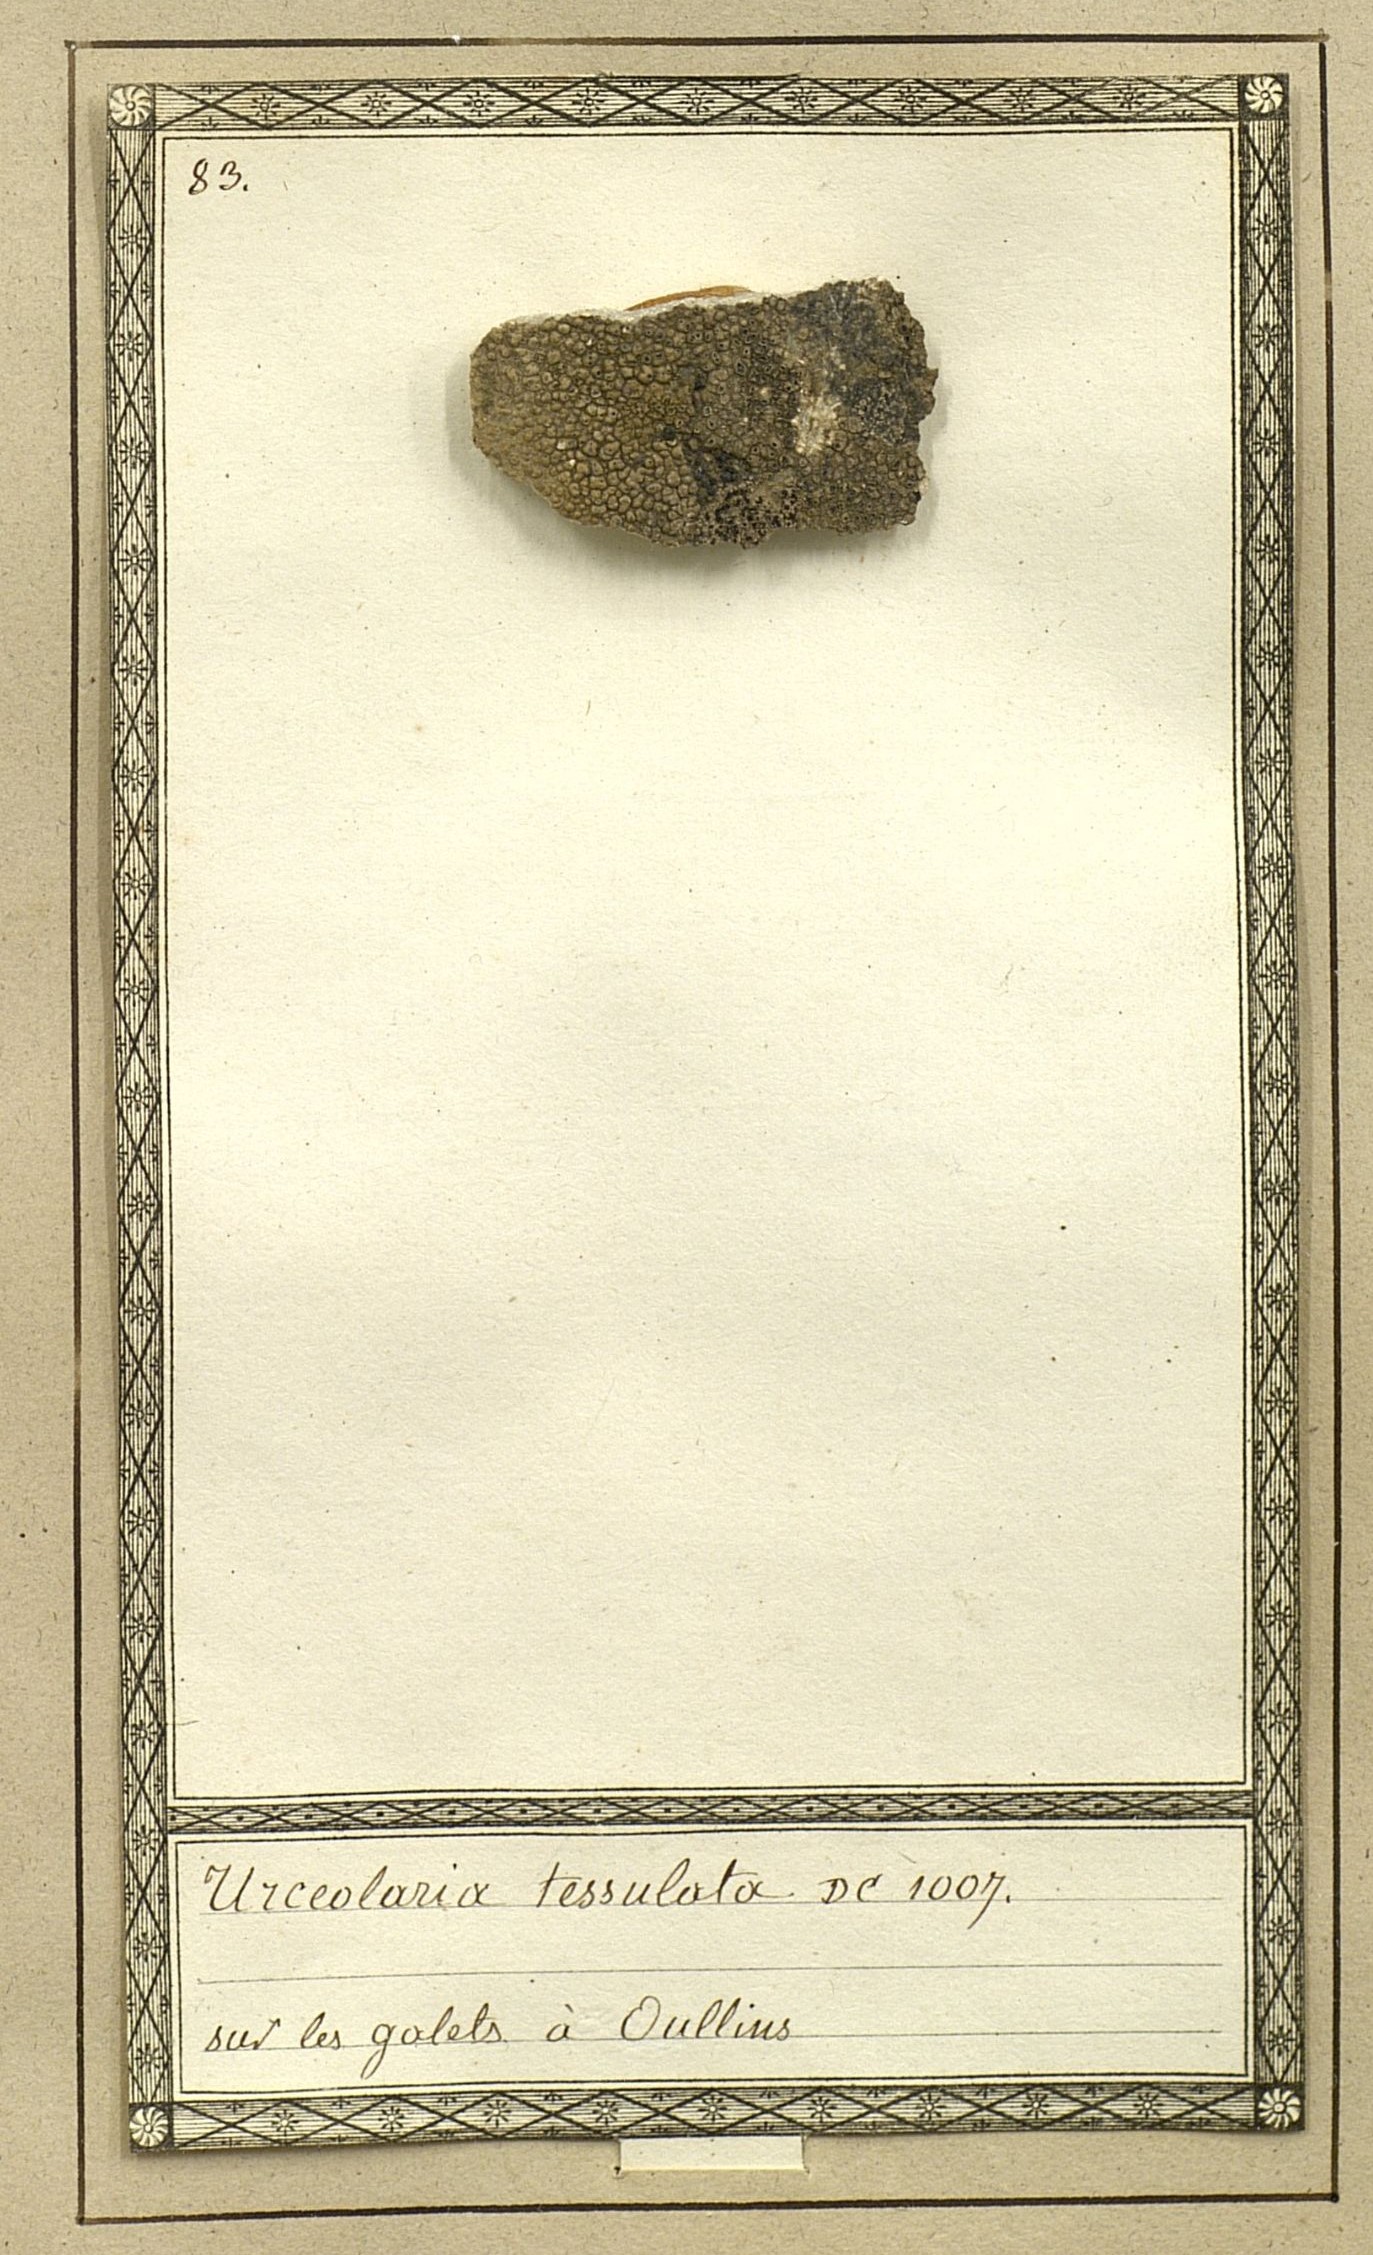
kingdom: Fungi
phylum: Ascomycota
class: Lecanoromycetes
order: Teloschistales
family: Teloschistaceae
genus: Neobrownliella
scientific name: Neobrownliella cinnabarina
